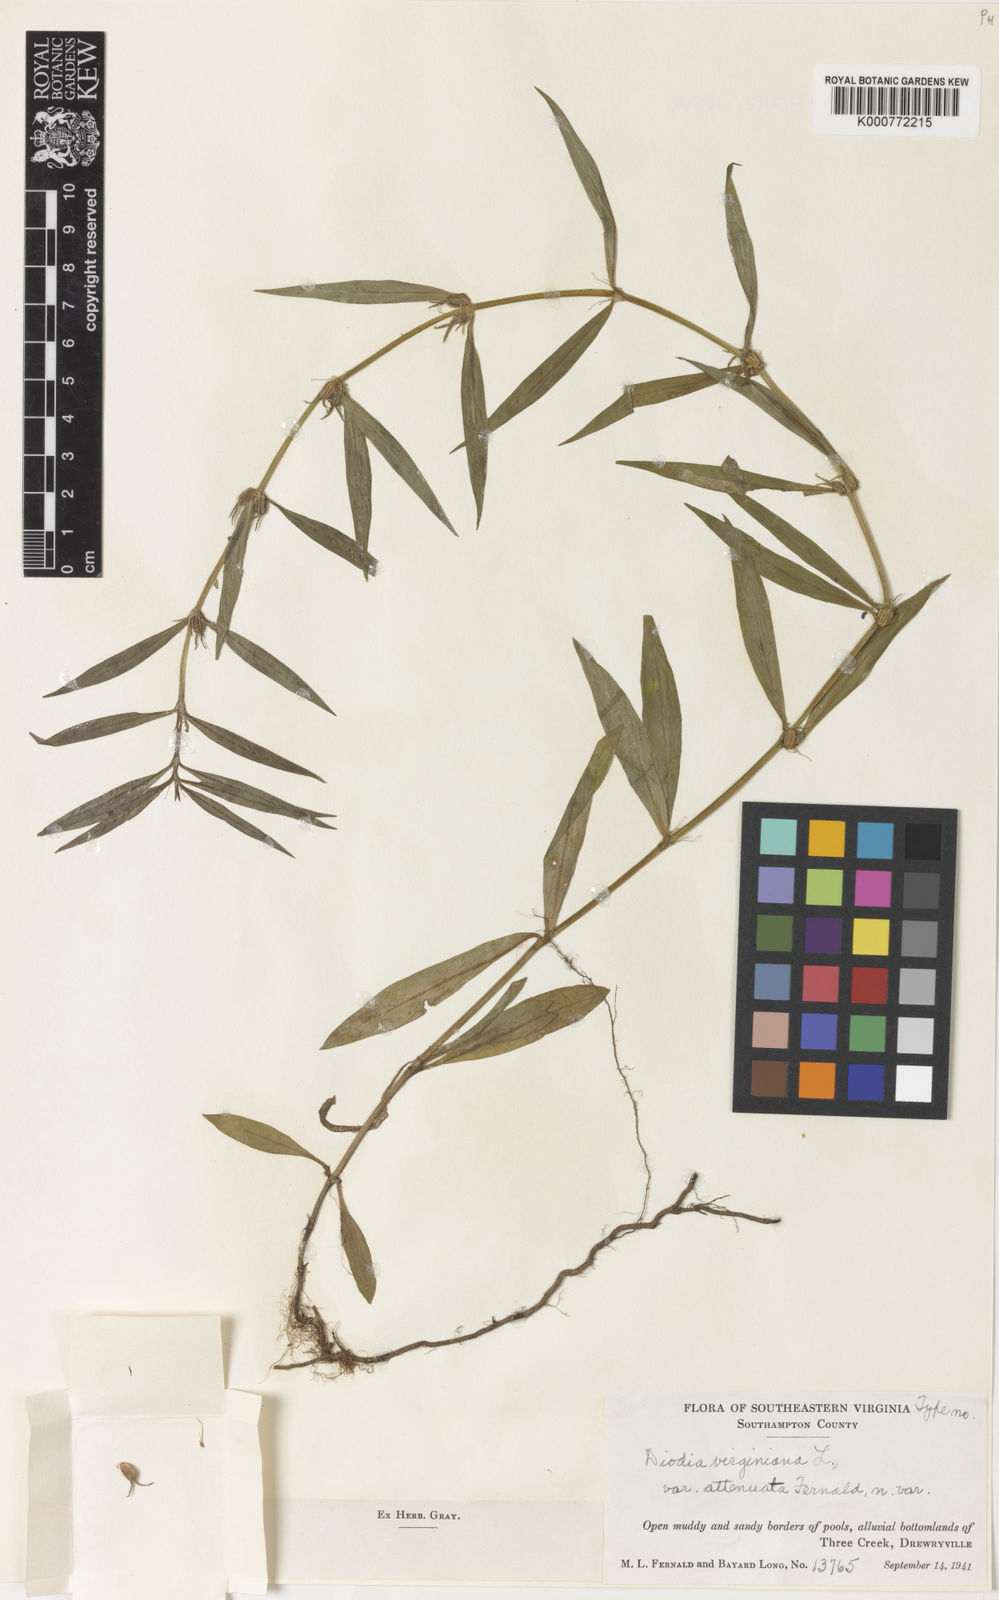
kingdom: Plantae
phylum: Tracheophyta
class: Magnoliopsida
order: Gentianales
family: Rubiaceae
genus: Diodia
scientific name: Diodia virginiana
